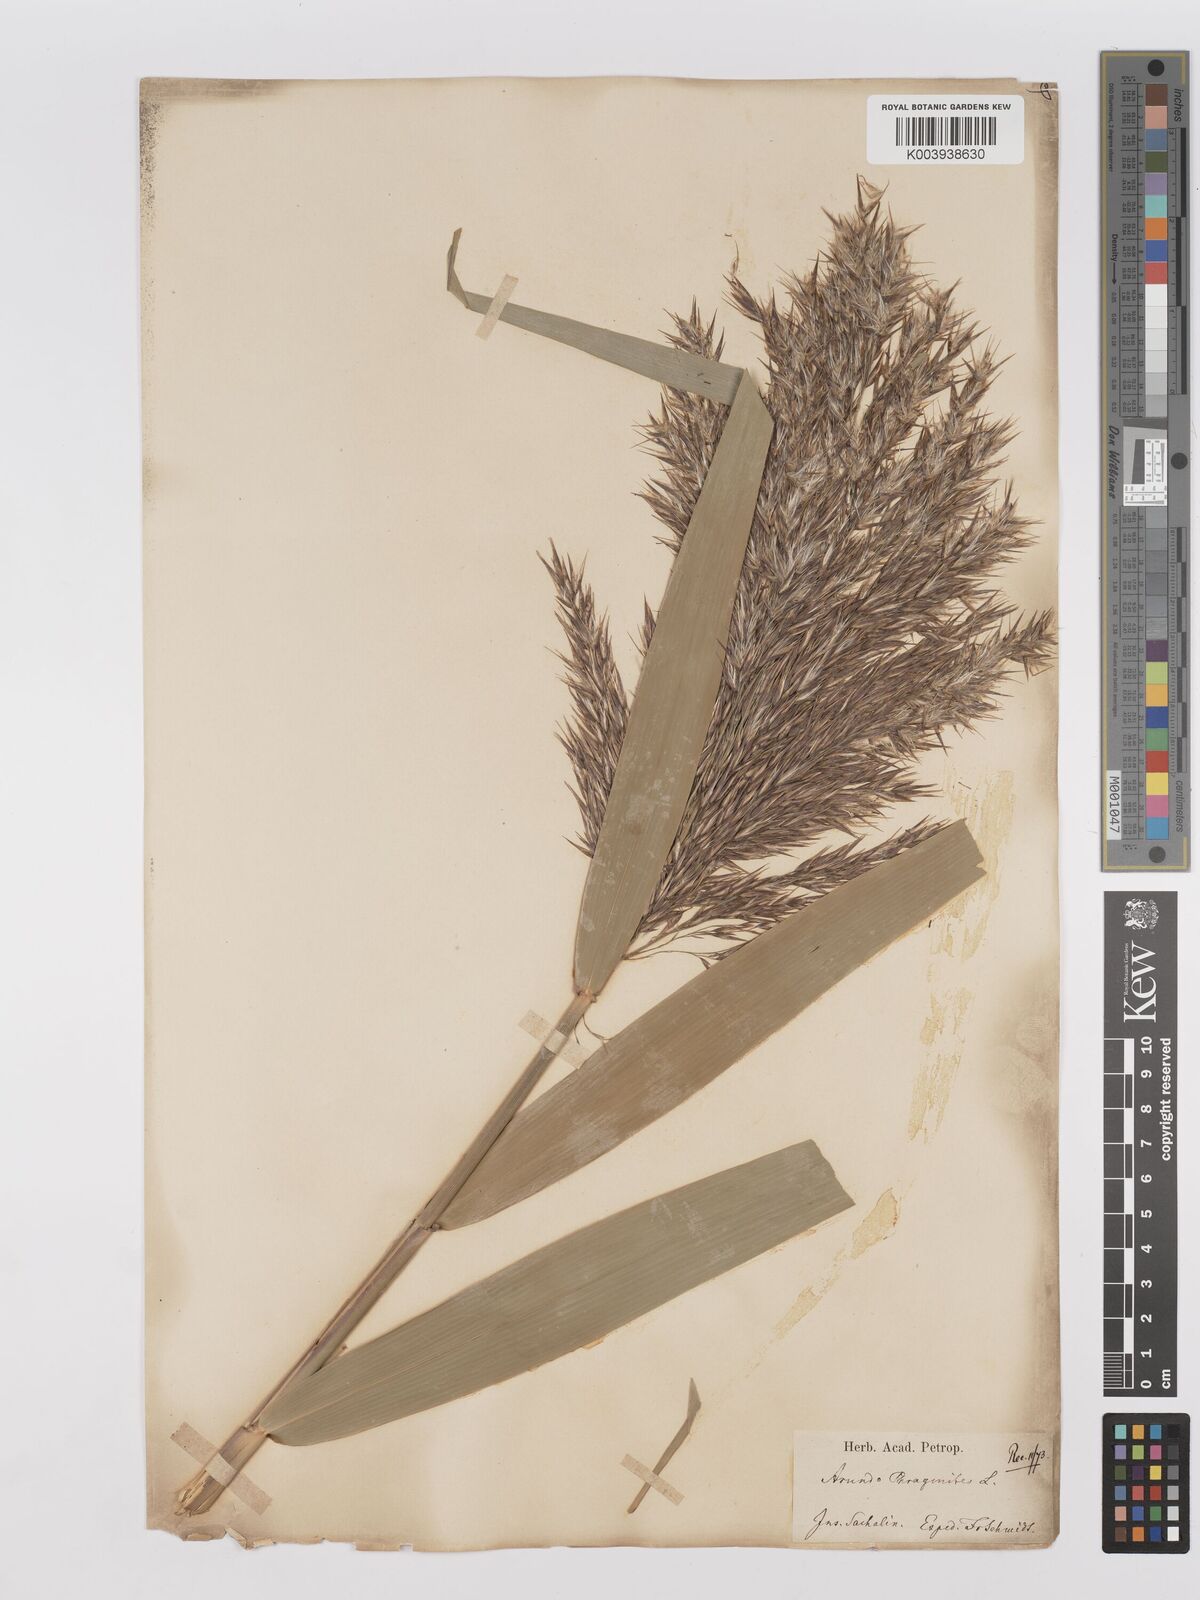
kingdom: Plantae
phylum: Tracheophyta
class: Liliopsida
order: Poales
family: Poaceae
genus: Phragmites
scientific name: Phragmites australis
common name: Common reed
